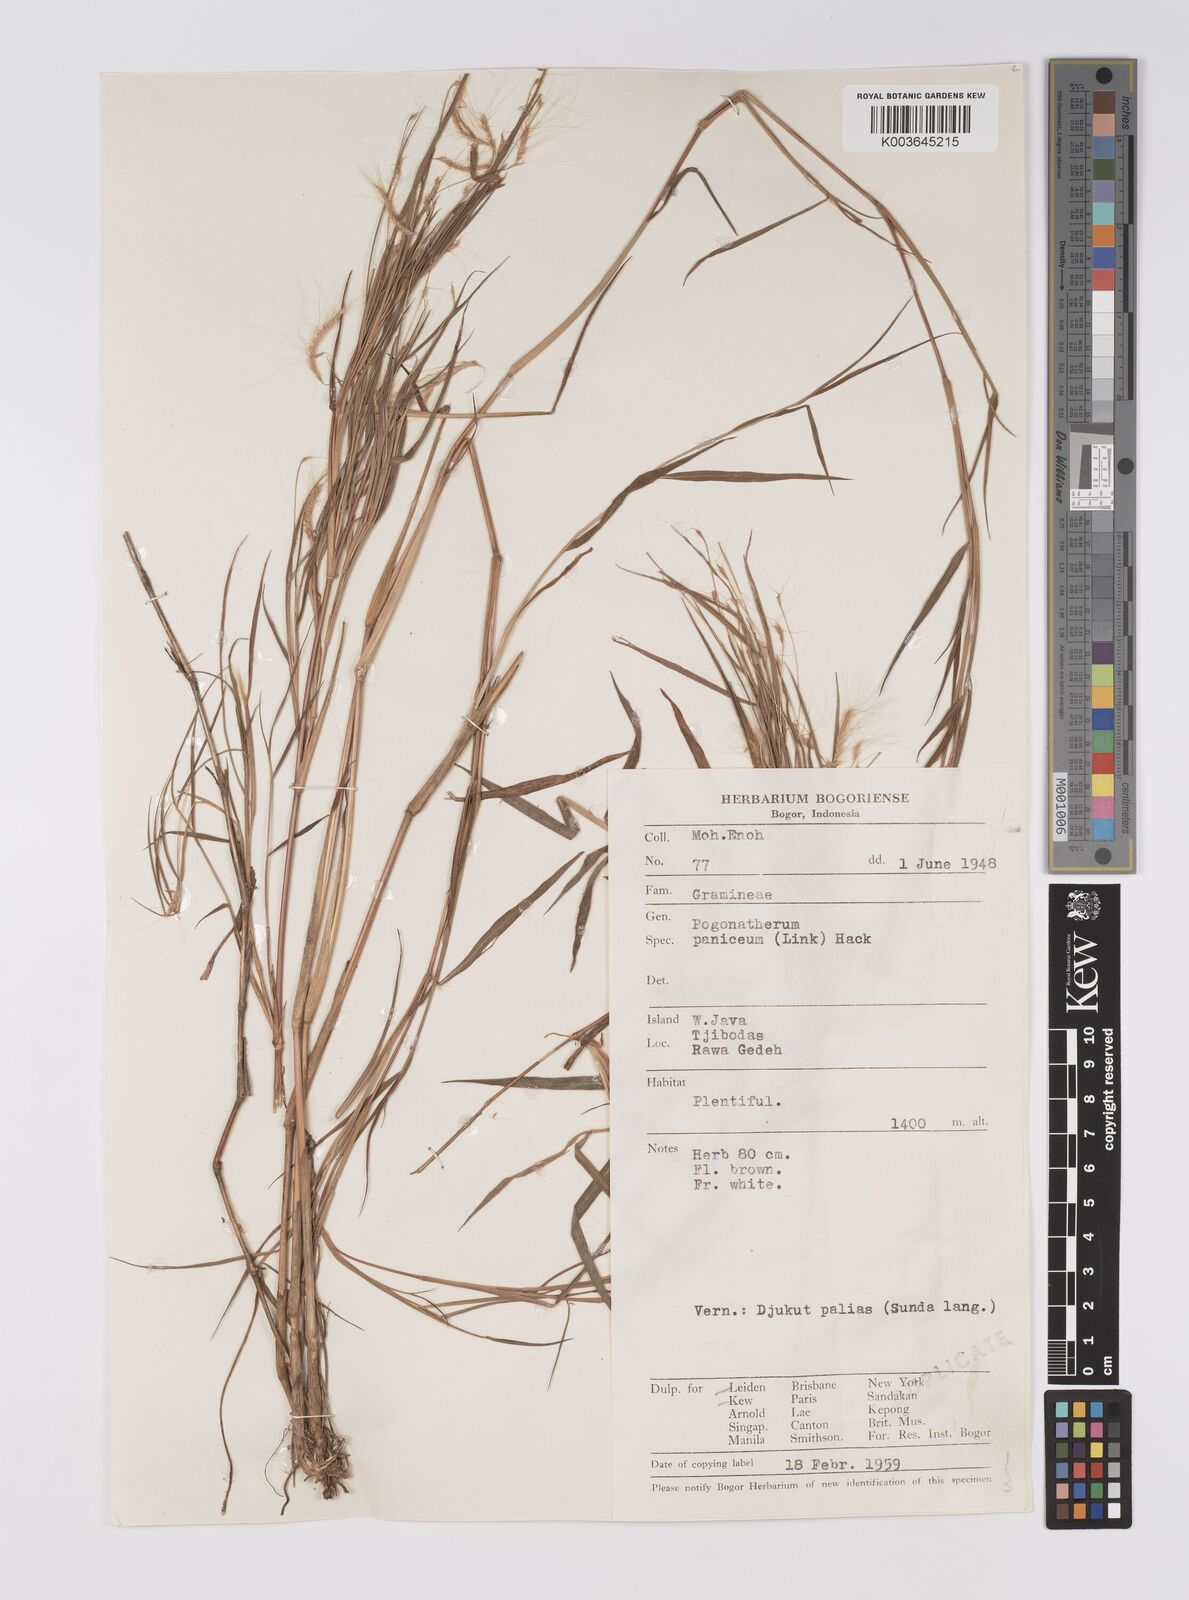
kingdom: Plantae
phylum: Tracheophyta
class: Liliopsida
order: Poales
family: Poaceae
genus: Pogonatherum
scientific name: Pogonatherum paniceum
